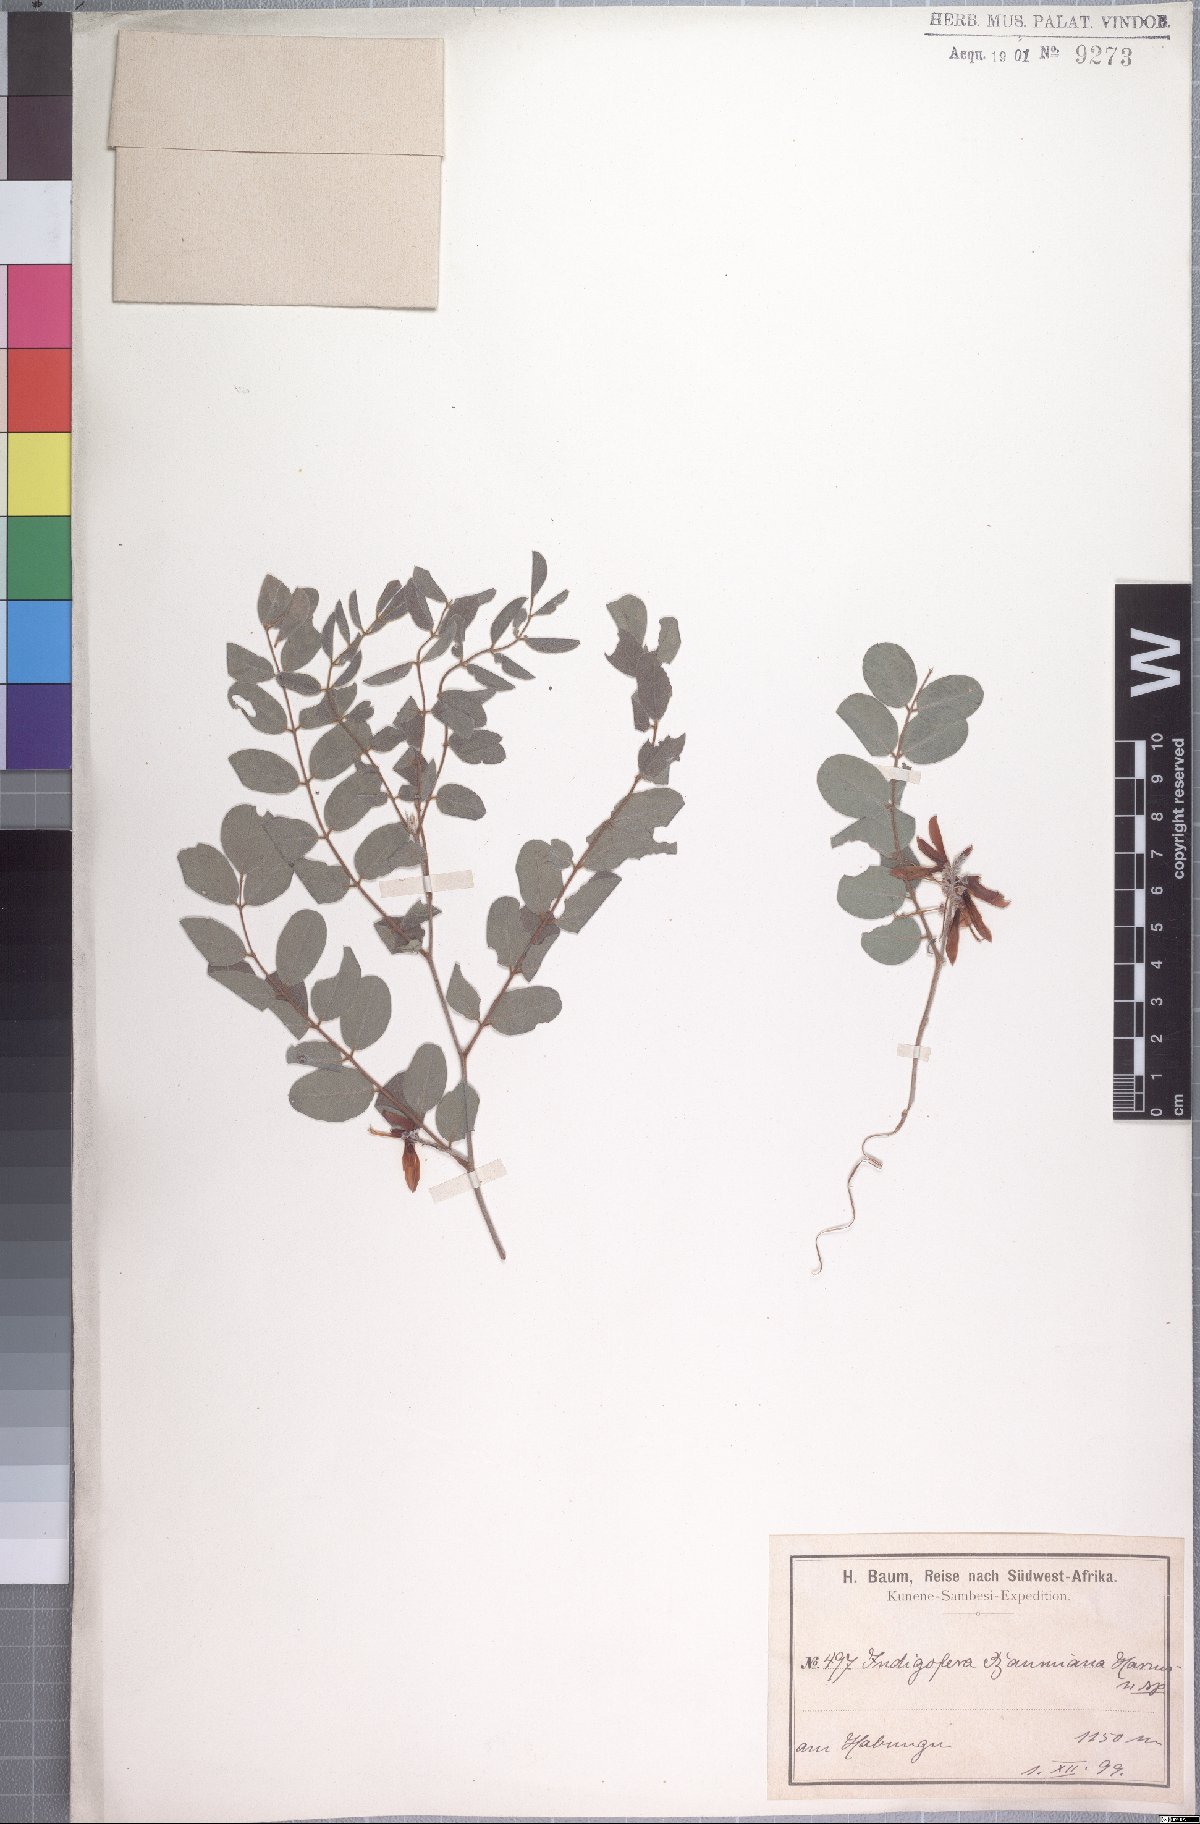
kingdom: Plantae
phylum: Tracheophyta
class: Magnoliopsida
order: Fabales
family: Fabaceae
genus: Indigofera
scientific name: Indigofera baumiana
